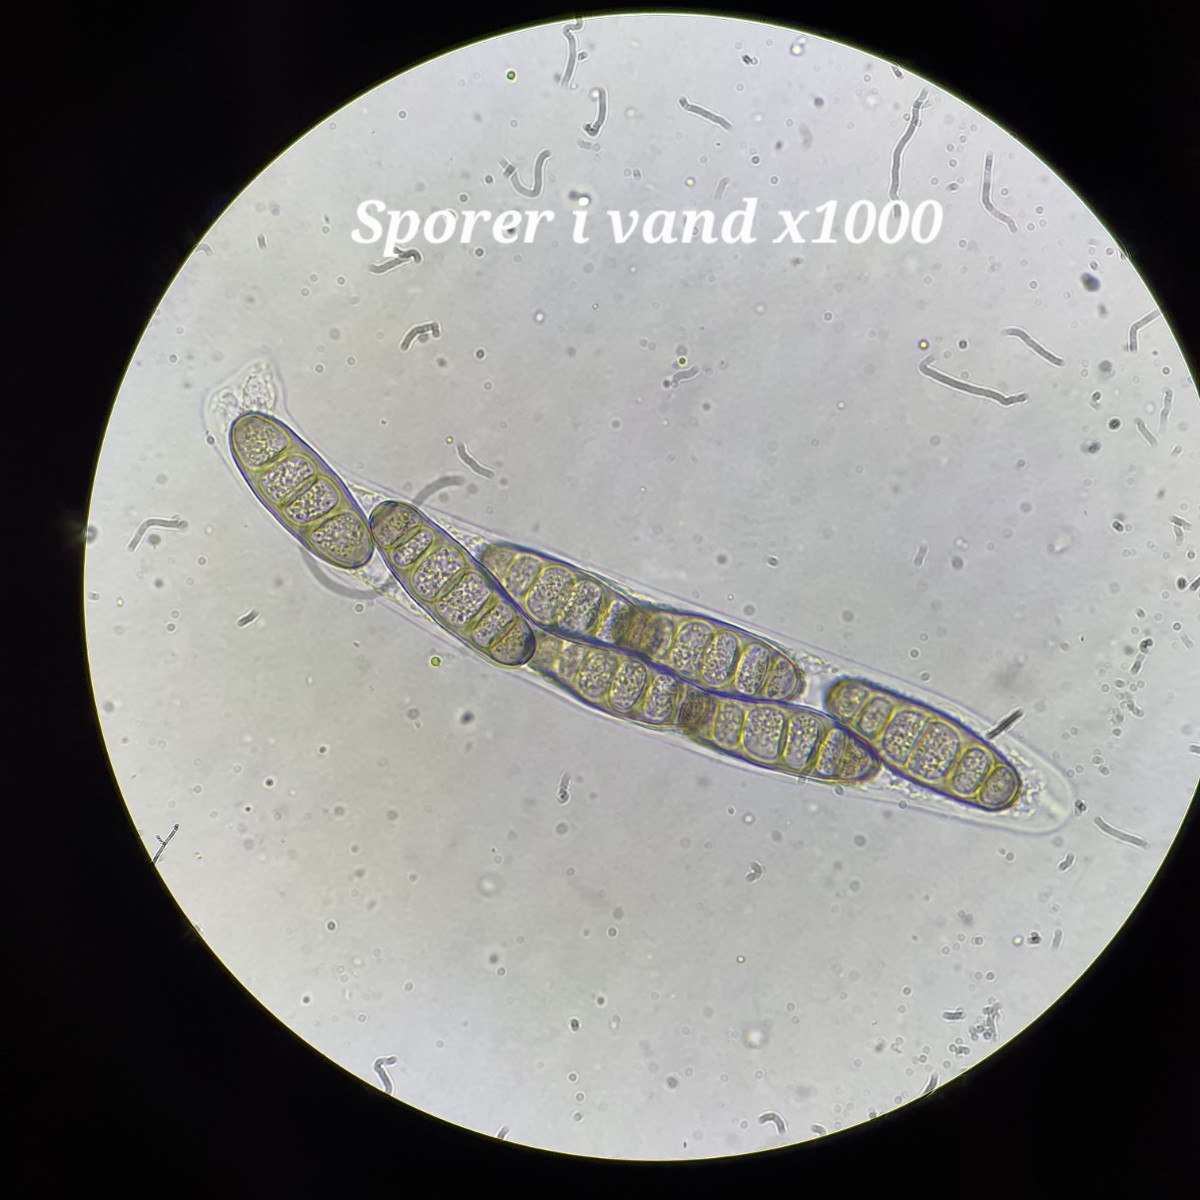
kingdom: Fungi
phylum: Ascomycota
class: Sordariomycetes
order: Diaporthales
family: Coryneaceae
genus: Coryneum
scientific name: Coryneum lanciforme
